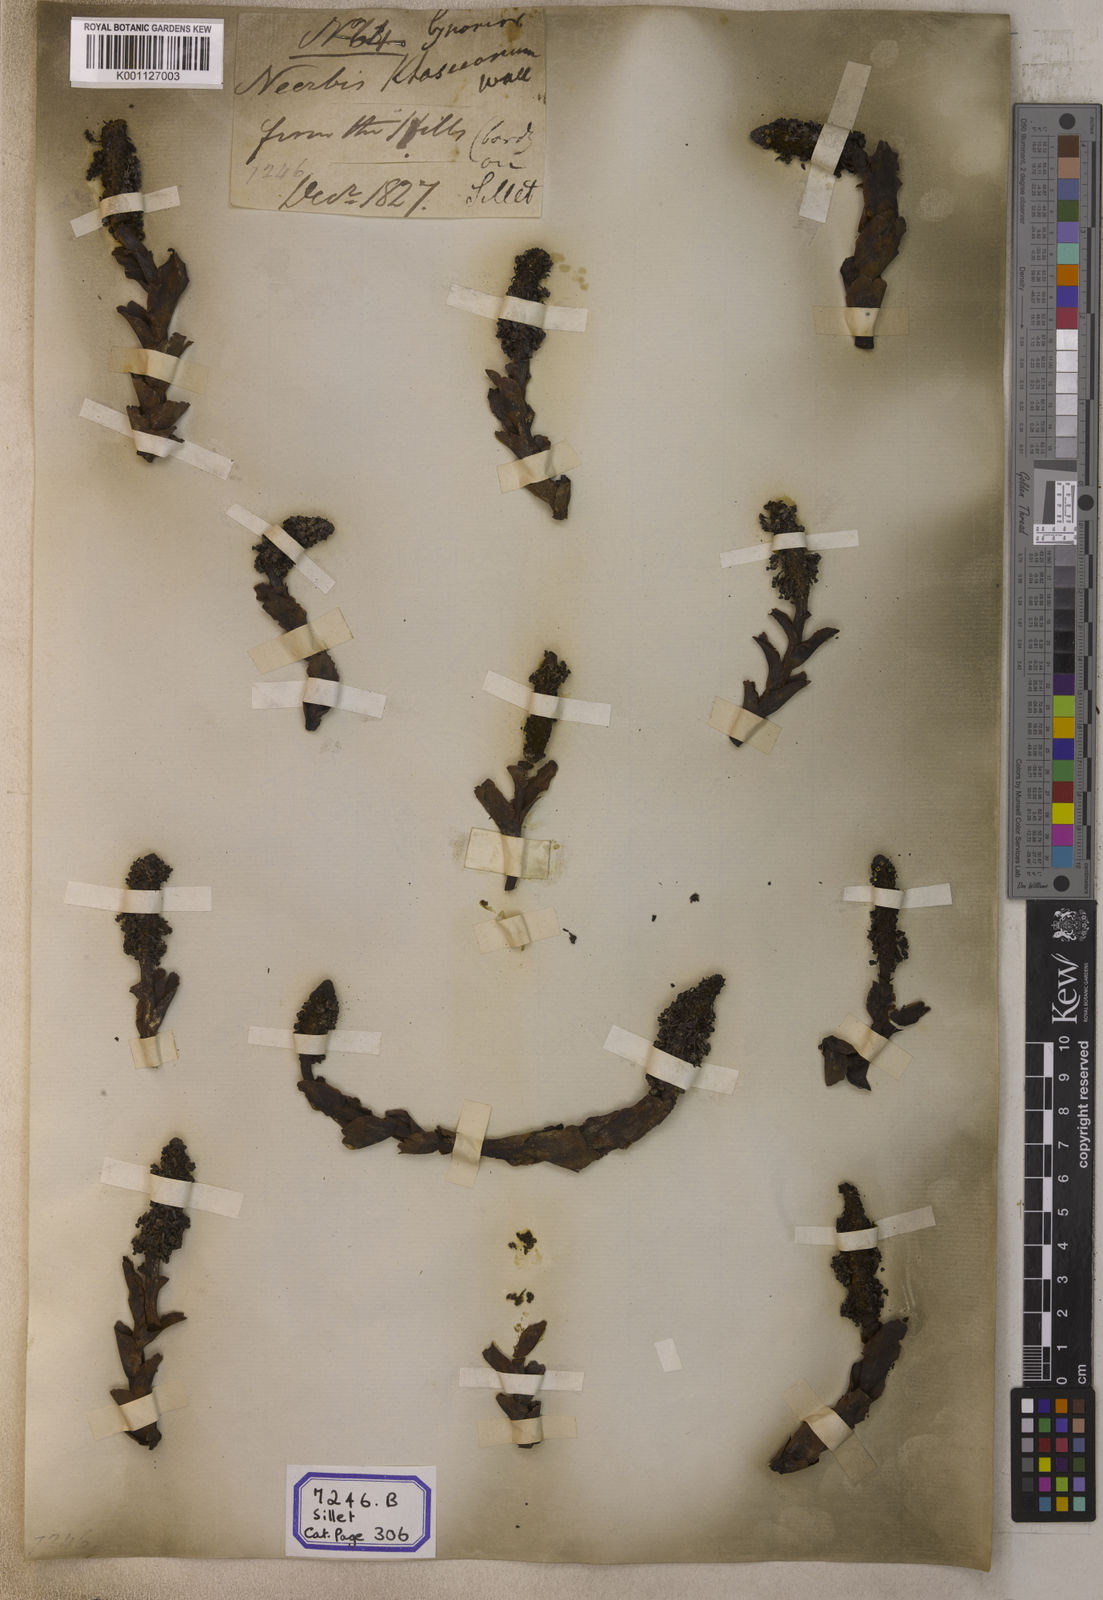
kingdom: Plantae
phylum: Tracheophyta
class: Magnoliopsida
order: Santalales
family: Balanophoraceae
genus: Balanophora
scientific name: Balanophora
